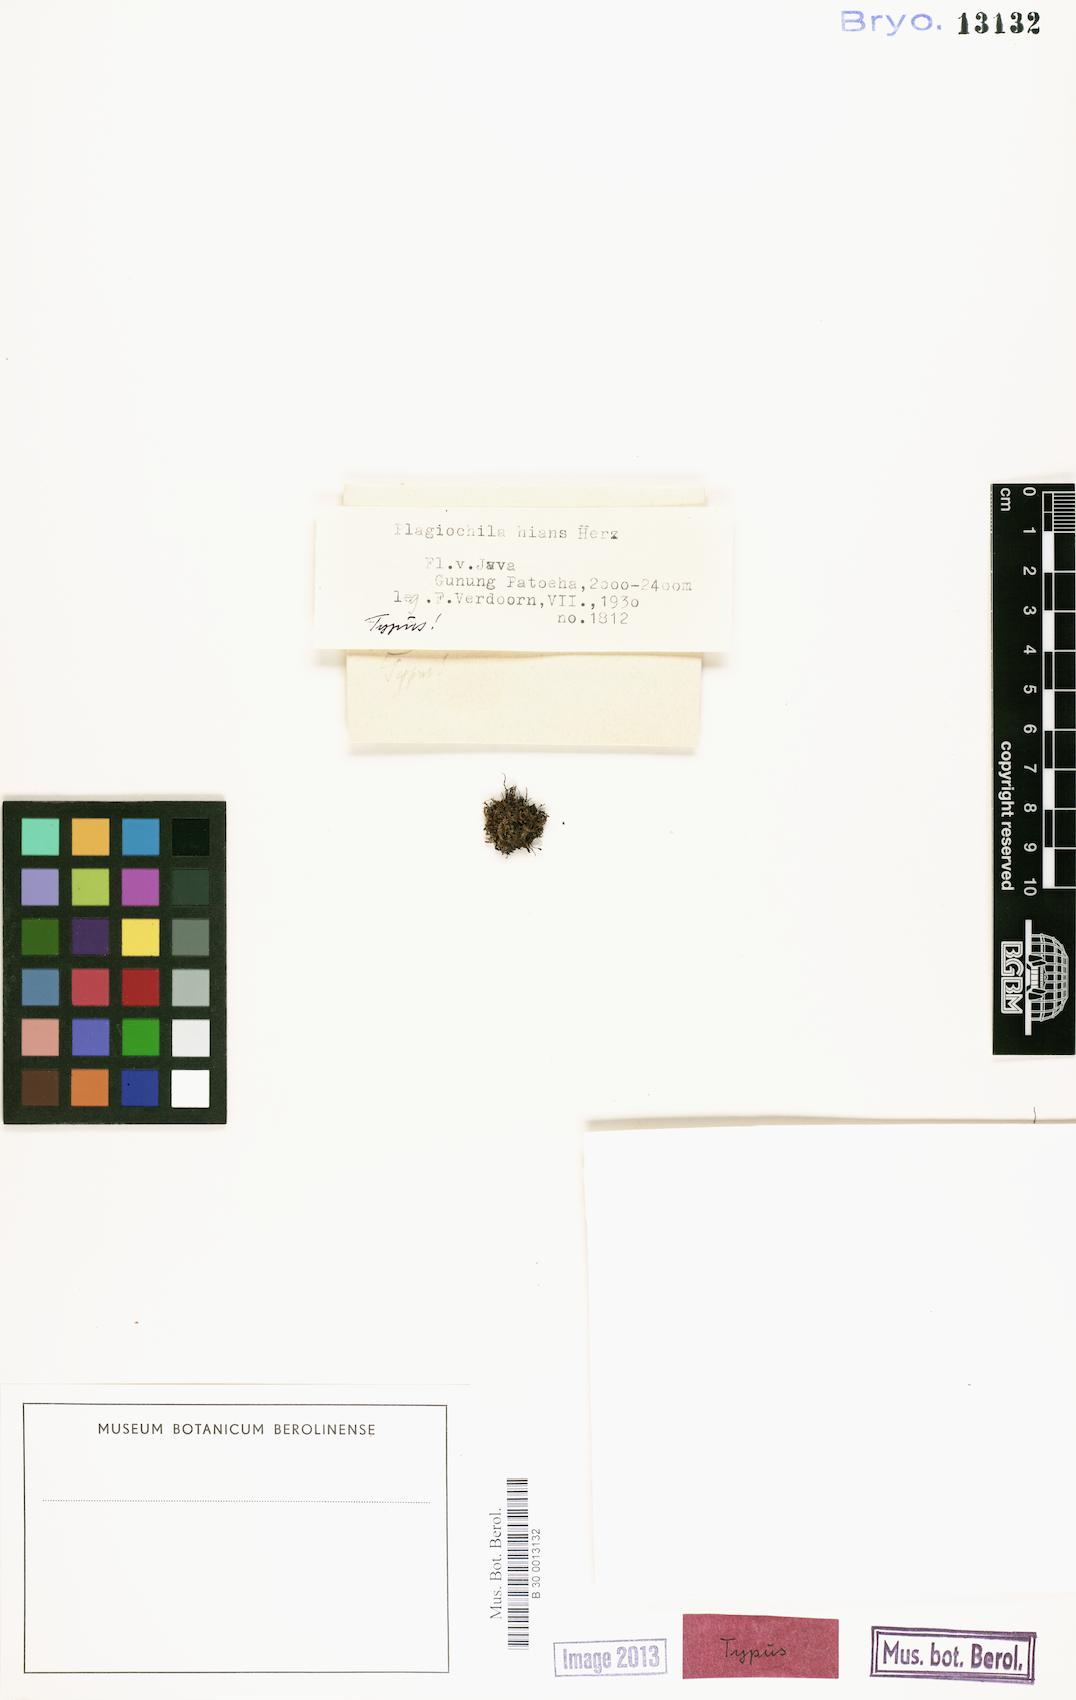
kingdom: Plantae
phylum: Marchantiophyta
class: Jungermanniopsida
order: Jungermanniales
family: Plagiochilaceae
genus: Plagiochila
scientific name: Plagiochila
